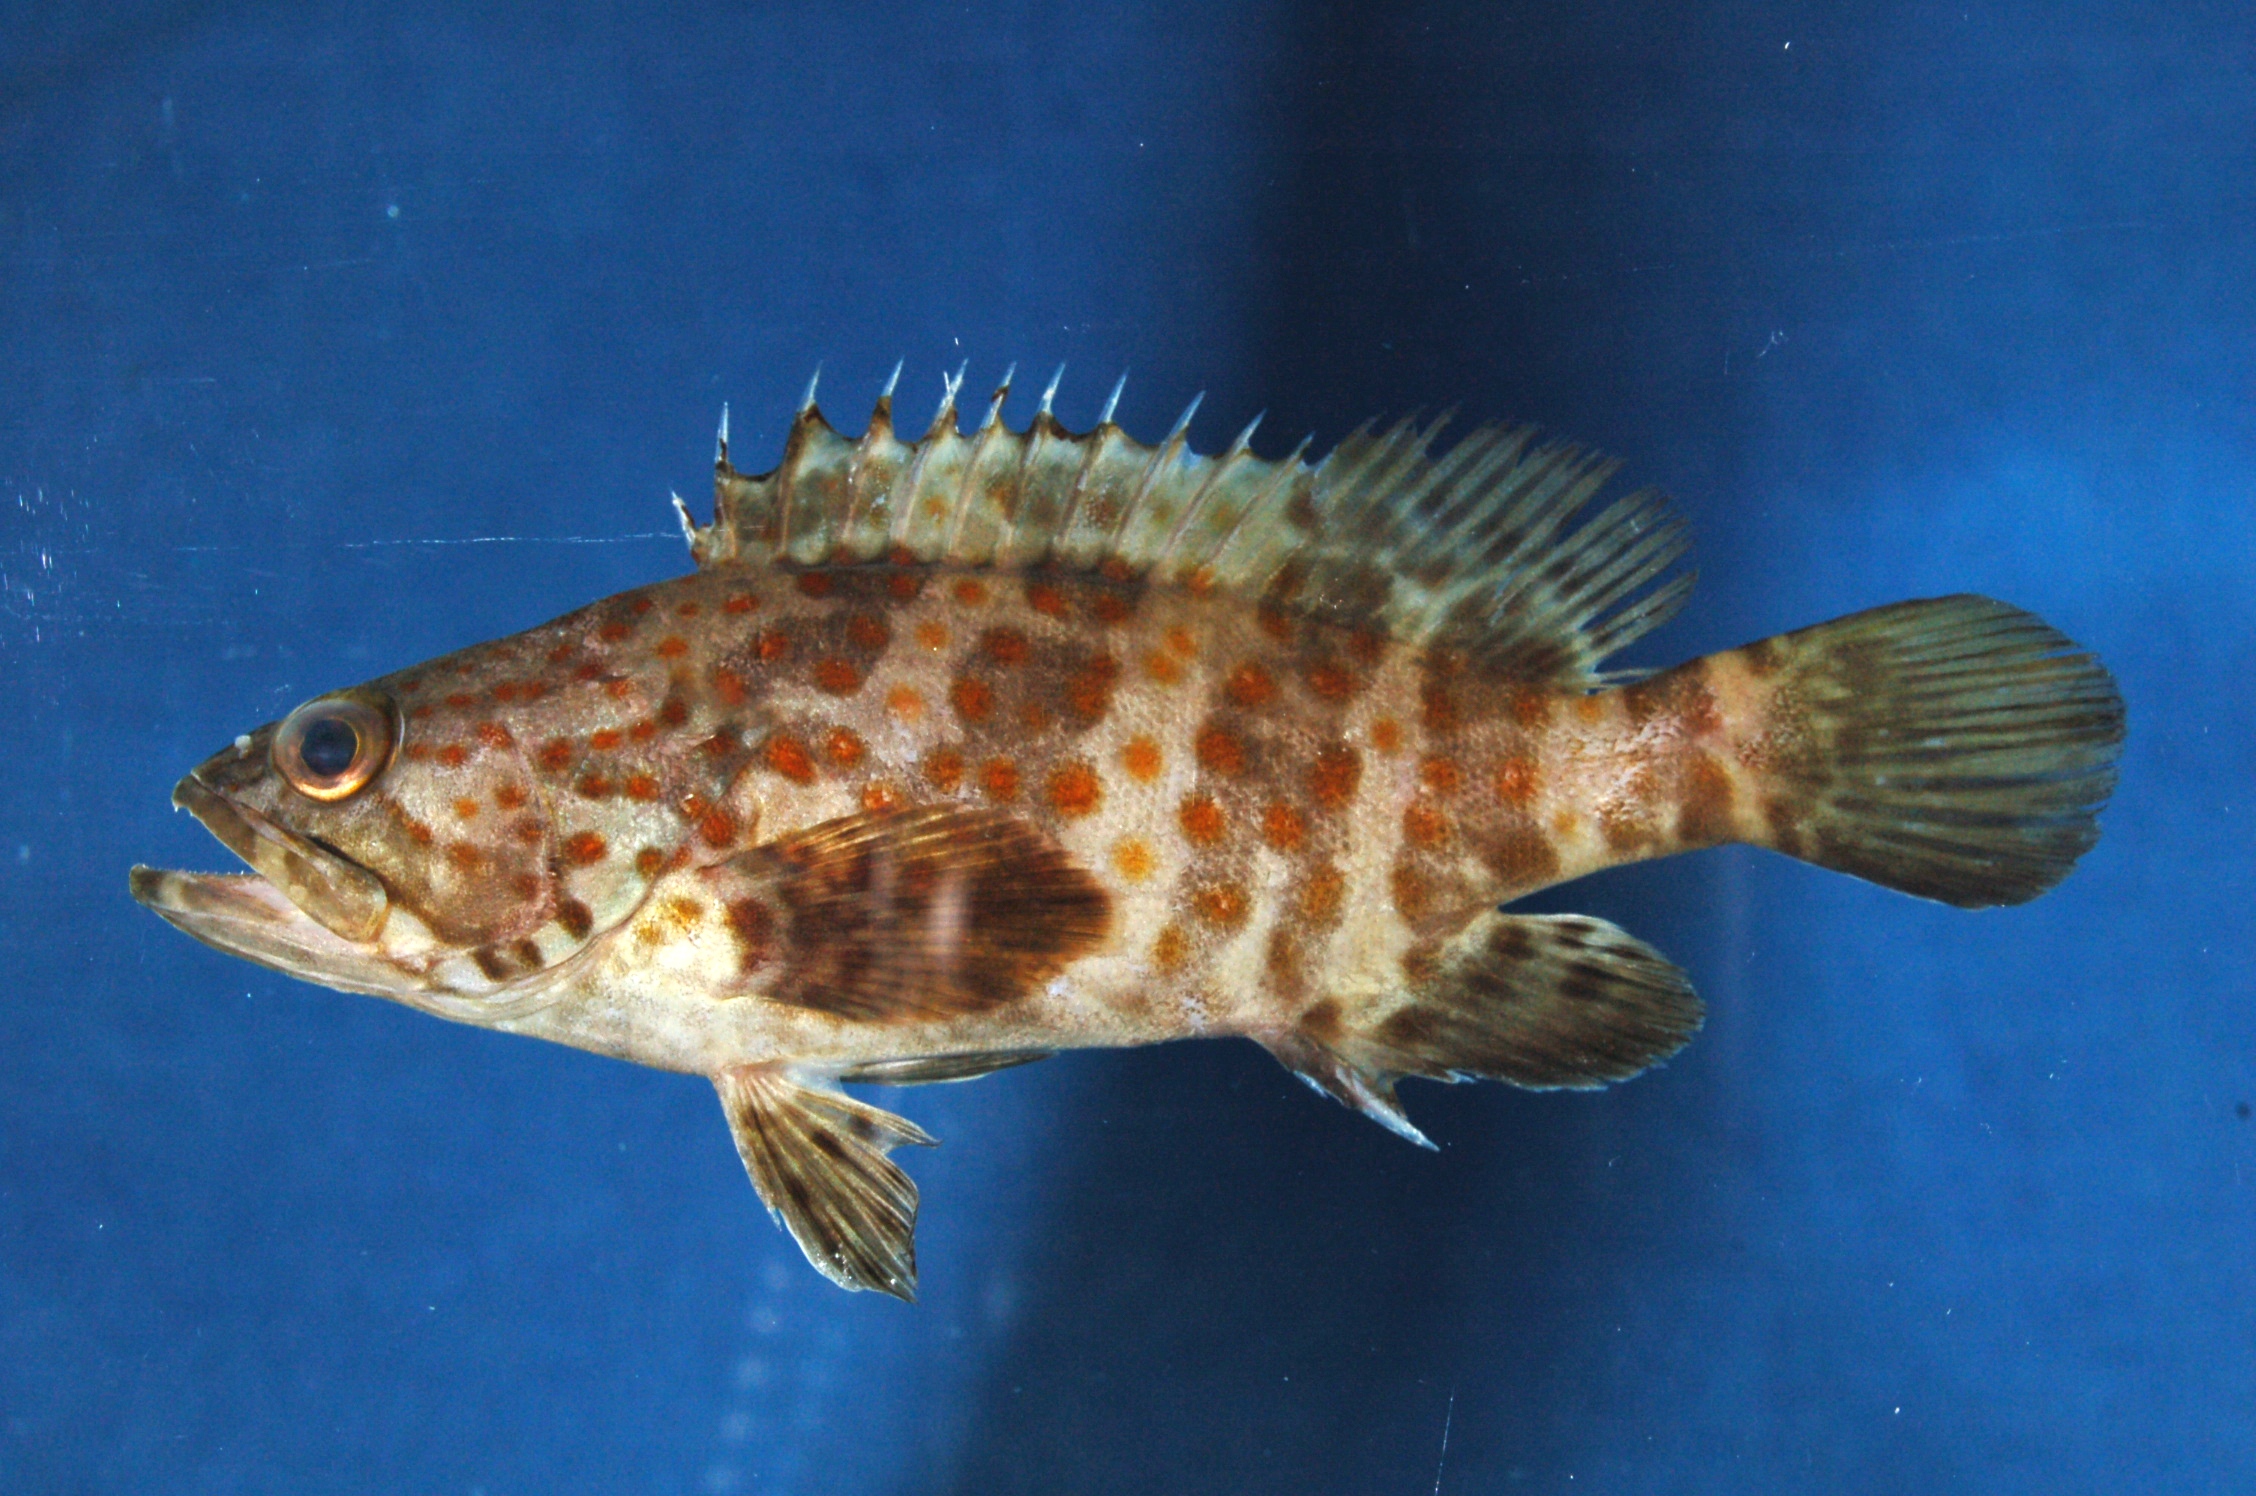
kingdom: Animalia
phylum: Chordata
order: Perciformes
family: Serranidae
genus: Epinephelus
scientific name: Epinephelus coioides
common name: Orange-spotted grouper
